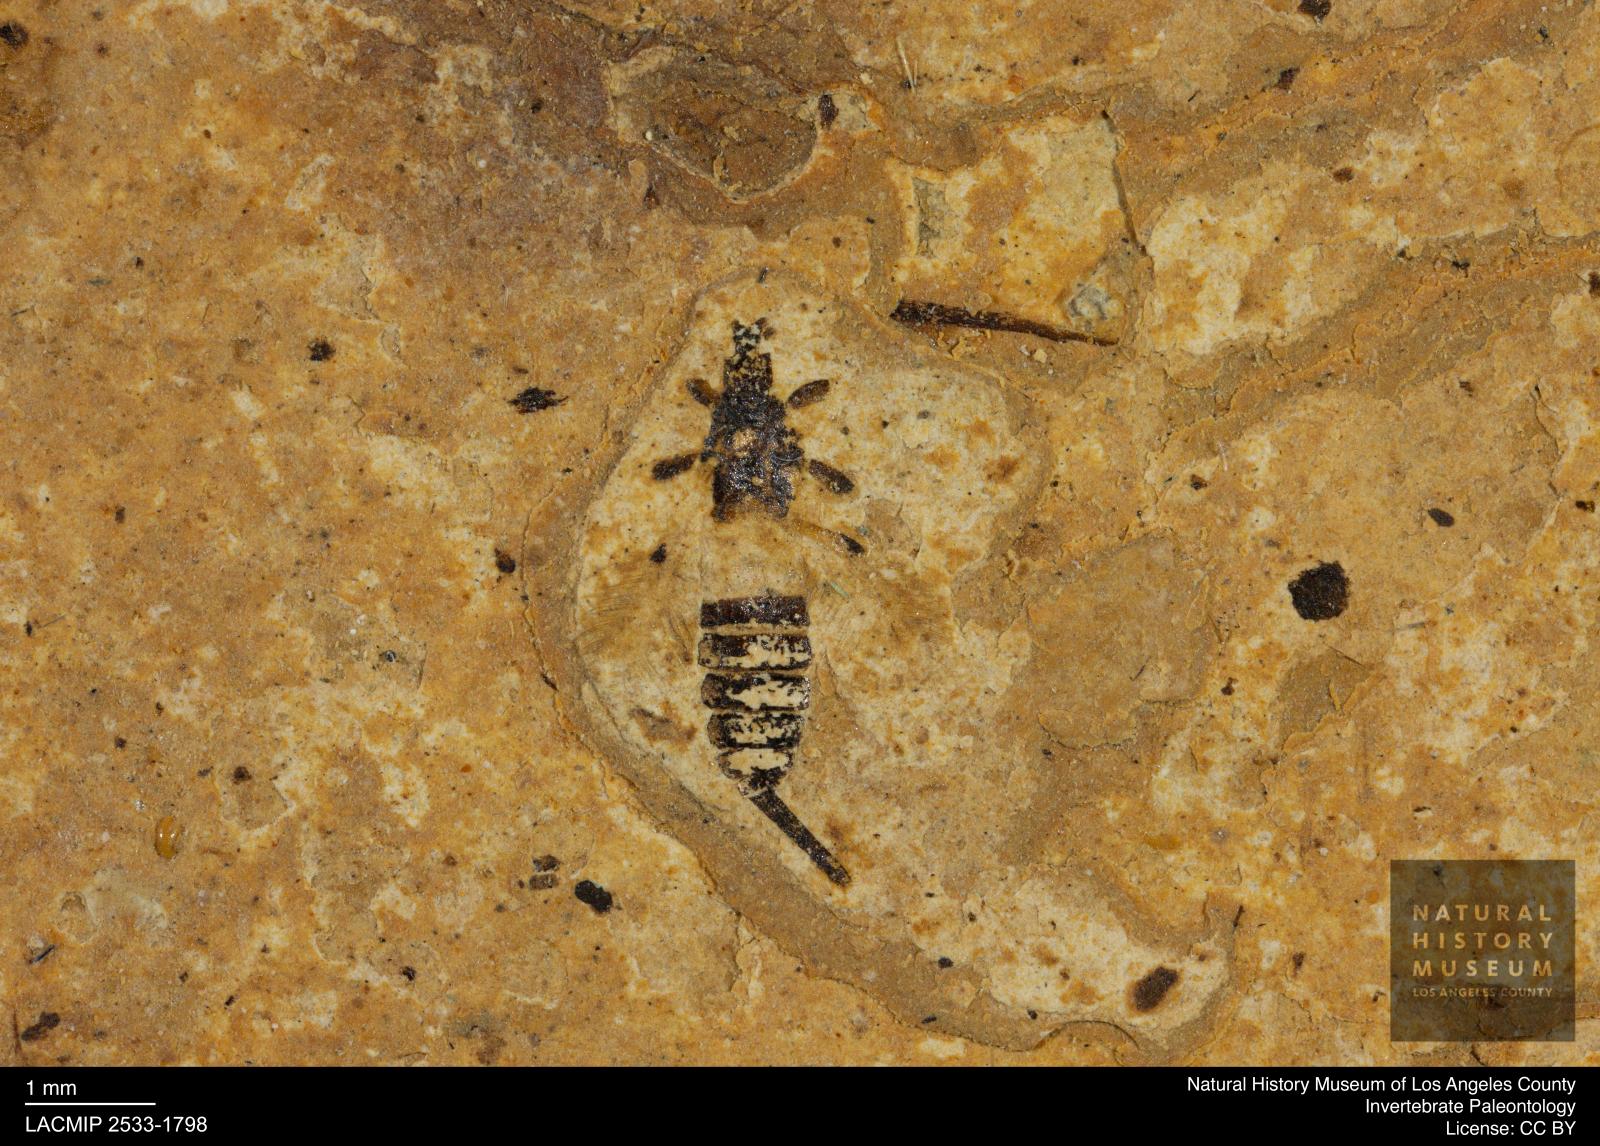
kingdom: Animalia
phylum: Arthropoda
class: Insecta
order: Thysanoptera
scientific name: Thysanoptera
